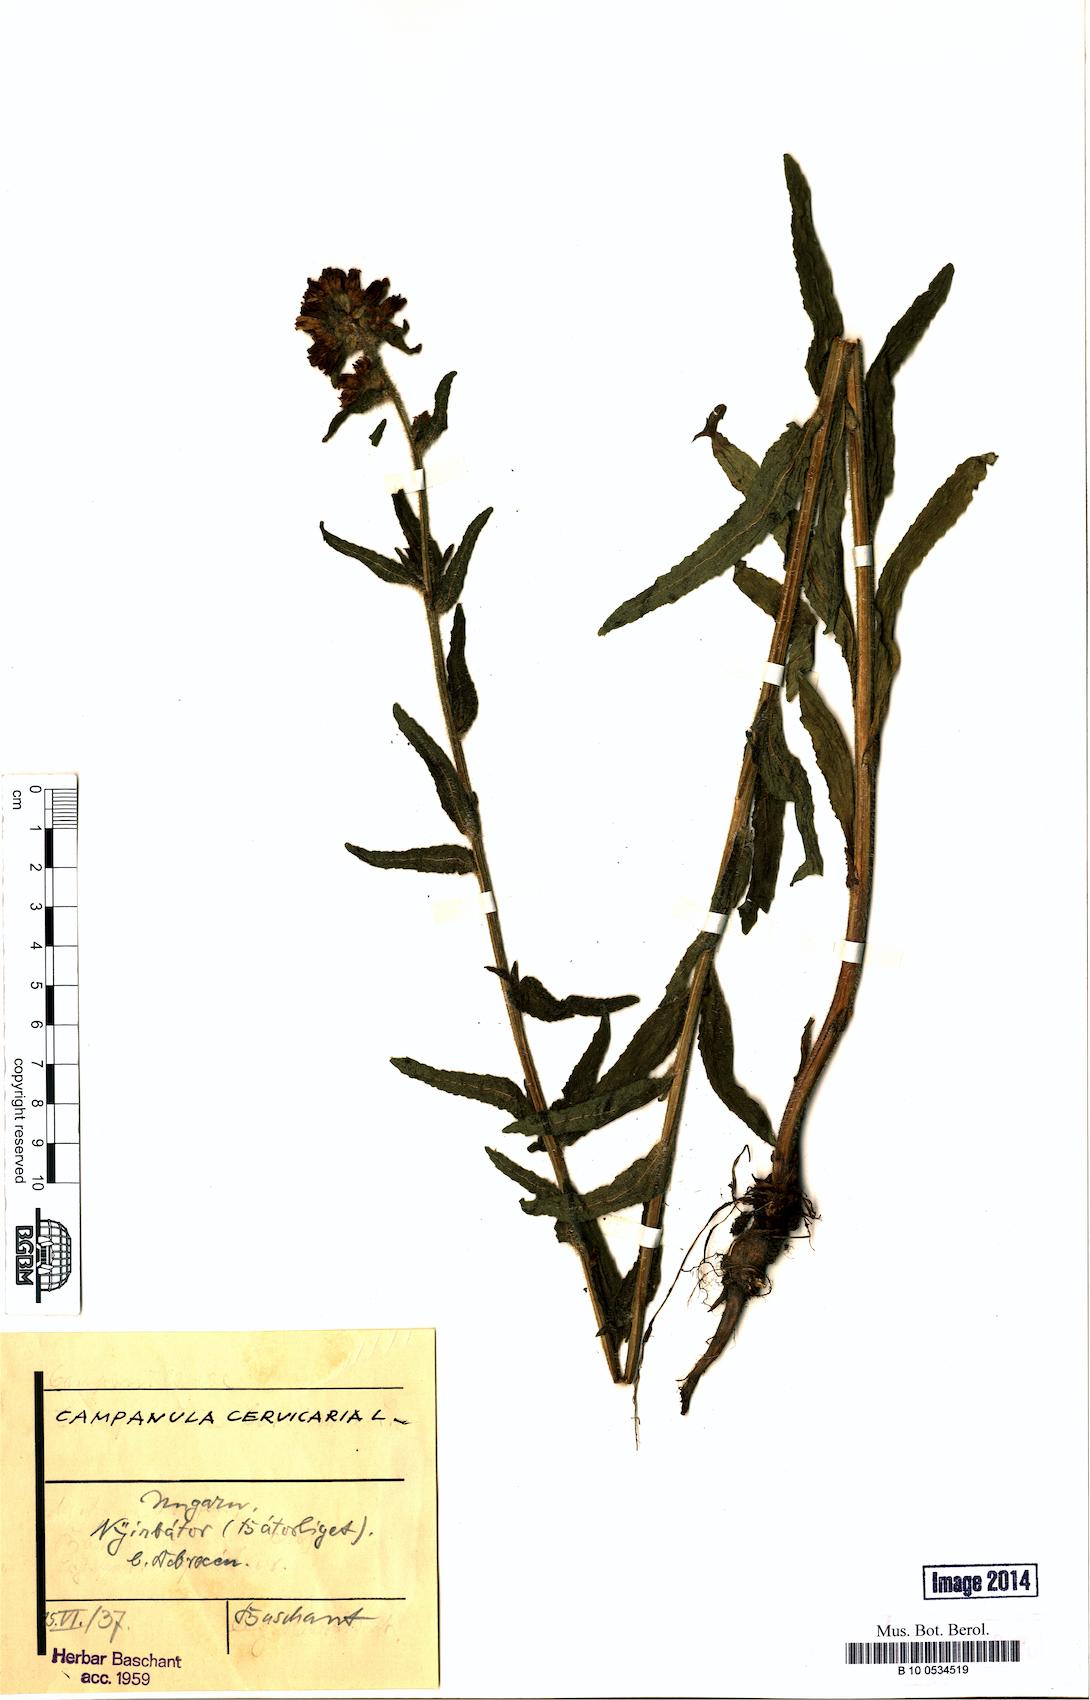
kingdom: Plantae
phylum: Tracheophyta
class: Magnoliopsida
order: Asterales
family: Campanulaceae
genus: Campanula
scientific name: Campanula cervicaria
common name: Bristly bellflower
